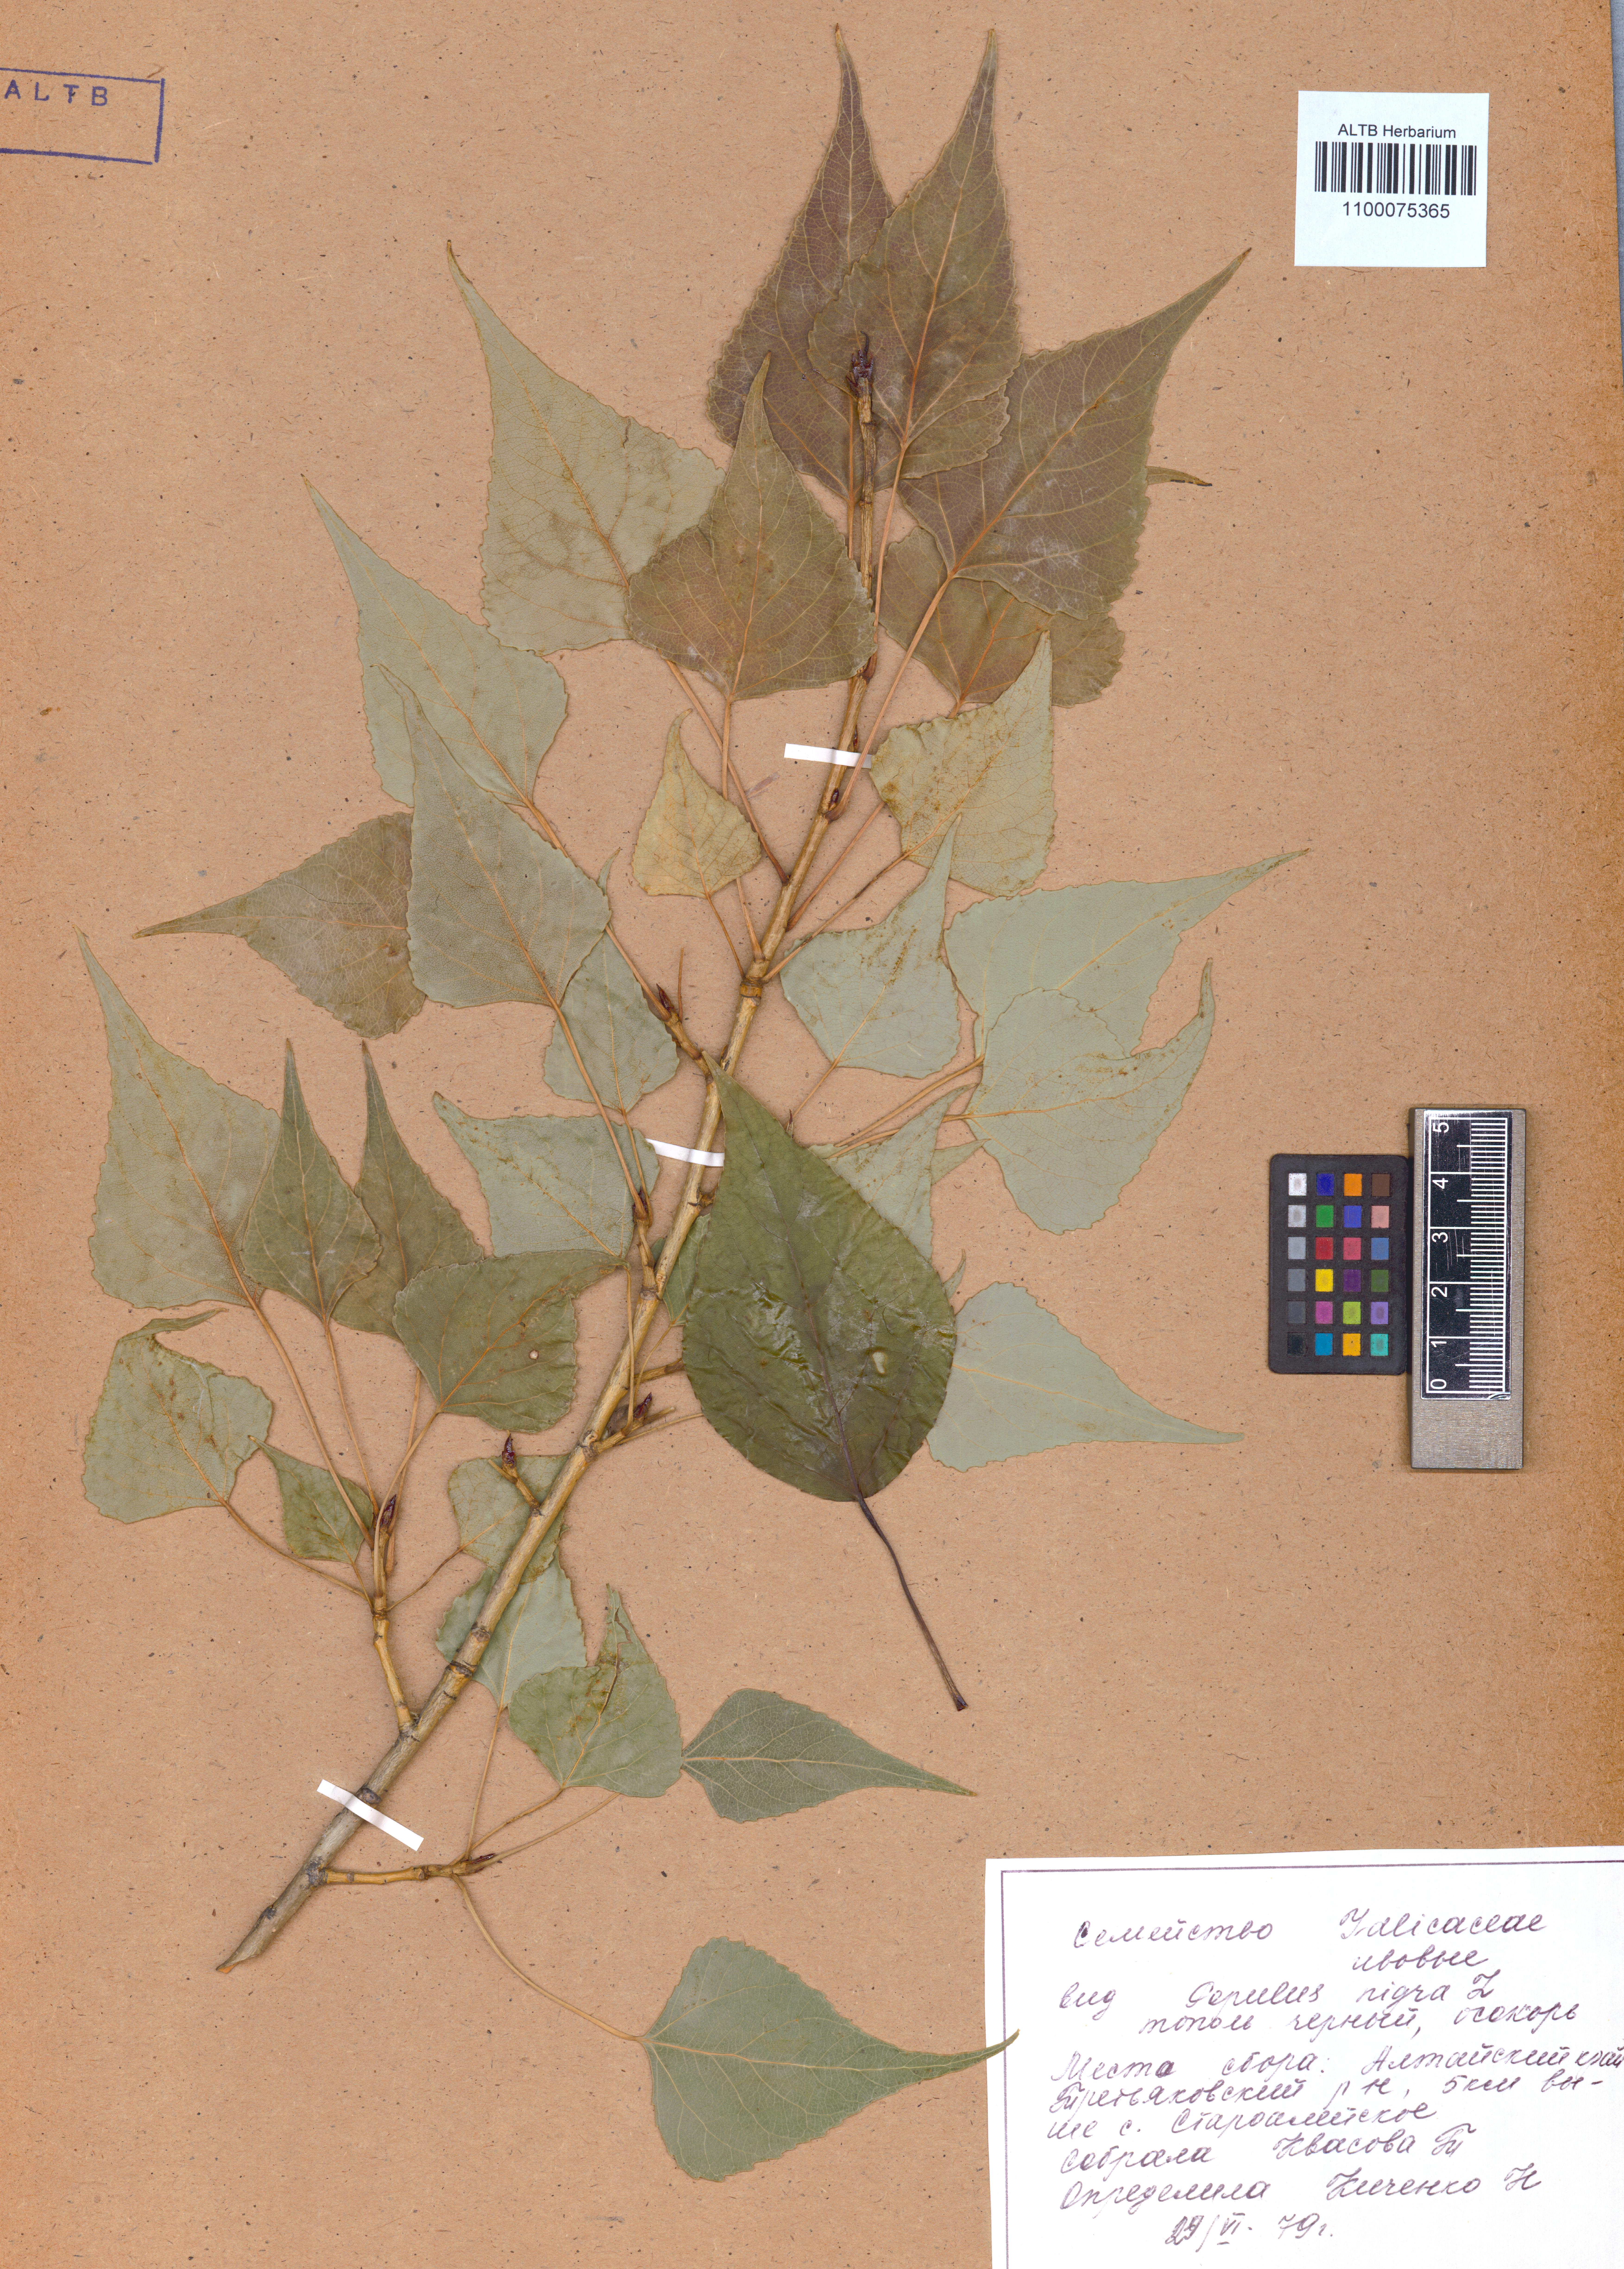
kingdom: Plantae
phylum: Tracheophyta
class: Magnoliopsida
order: Malpighiales
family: Salicaceae
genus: Populus
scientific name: Populus nigra
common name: Black poplar
